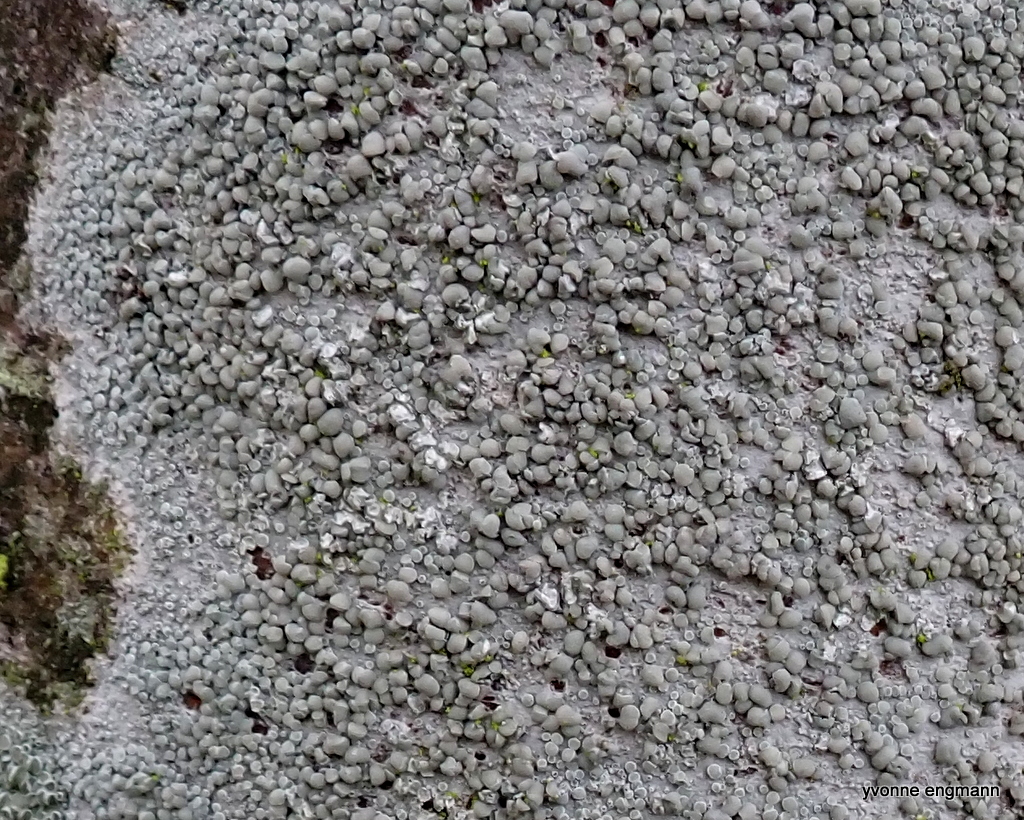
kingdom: Fungi
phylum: Ascomycota
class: Lecanoromycetes
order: Lecanorales
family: Lecanoraceae
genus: Glaucomaria
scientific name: Glaucomaria carpinea
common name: hviddugget kantskivelav
